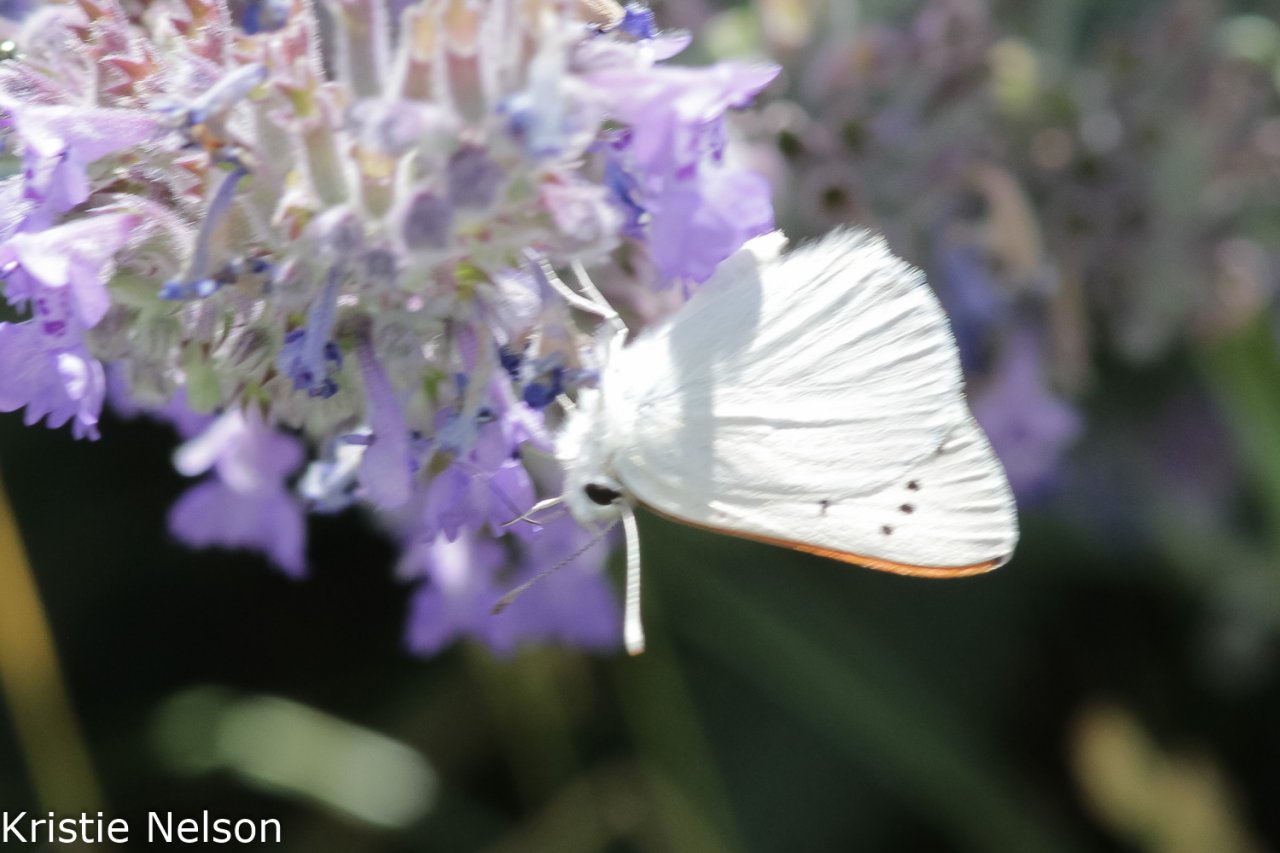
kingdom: Animalia
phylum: Arthropoda
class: Insecta
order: Lepidoptera
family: Sesiidae
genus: Sesia
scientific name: Sesia Lycaena rubidus
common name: Ruddy Copper
